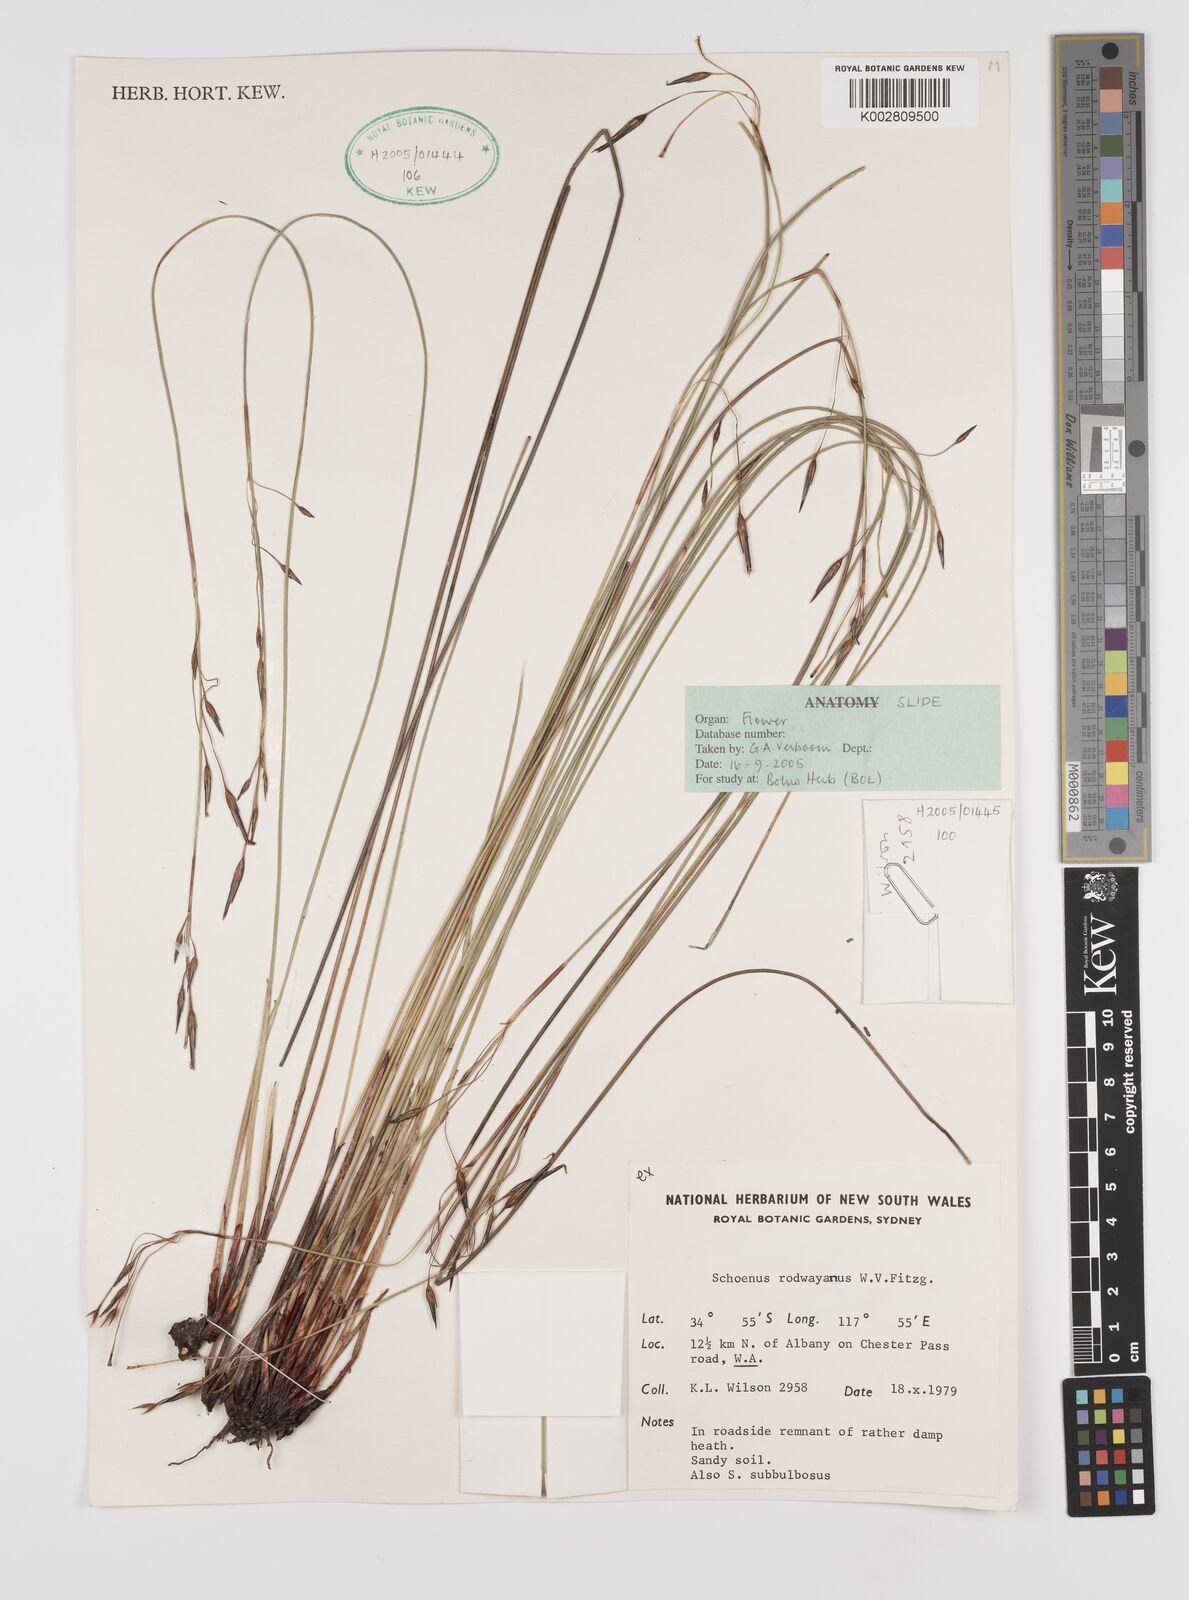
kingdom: Plantae
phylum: Tracheophyta
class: Liliopsida
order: Poales
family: Cyperaceae
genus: Schoenus
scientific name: Schoenus rodwayanus
